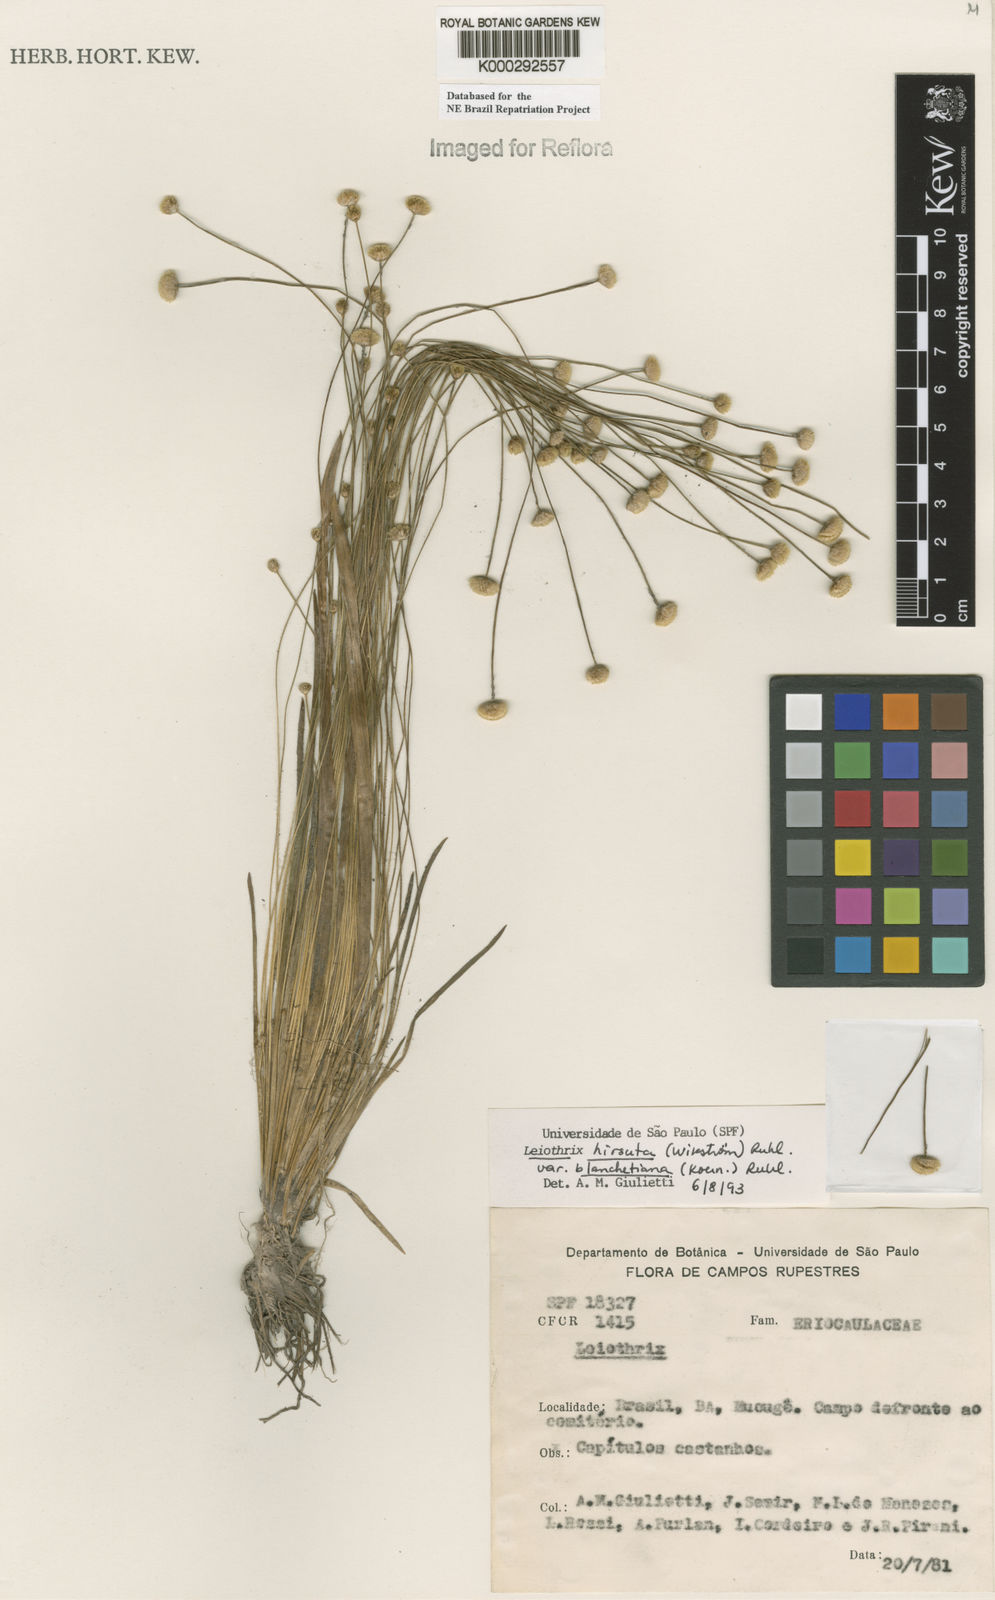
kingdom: Plantae
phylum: Tracheophyta
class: Liliopsida
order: Poales
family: Eriocaulaceae
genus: Leiothrix
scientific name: Leiothrix hirsuta
